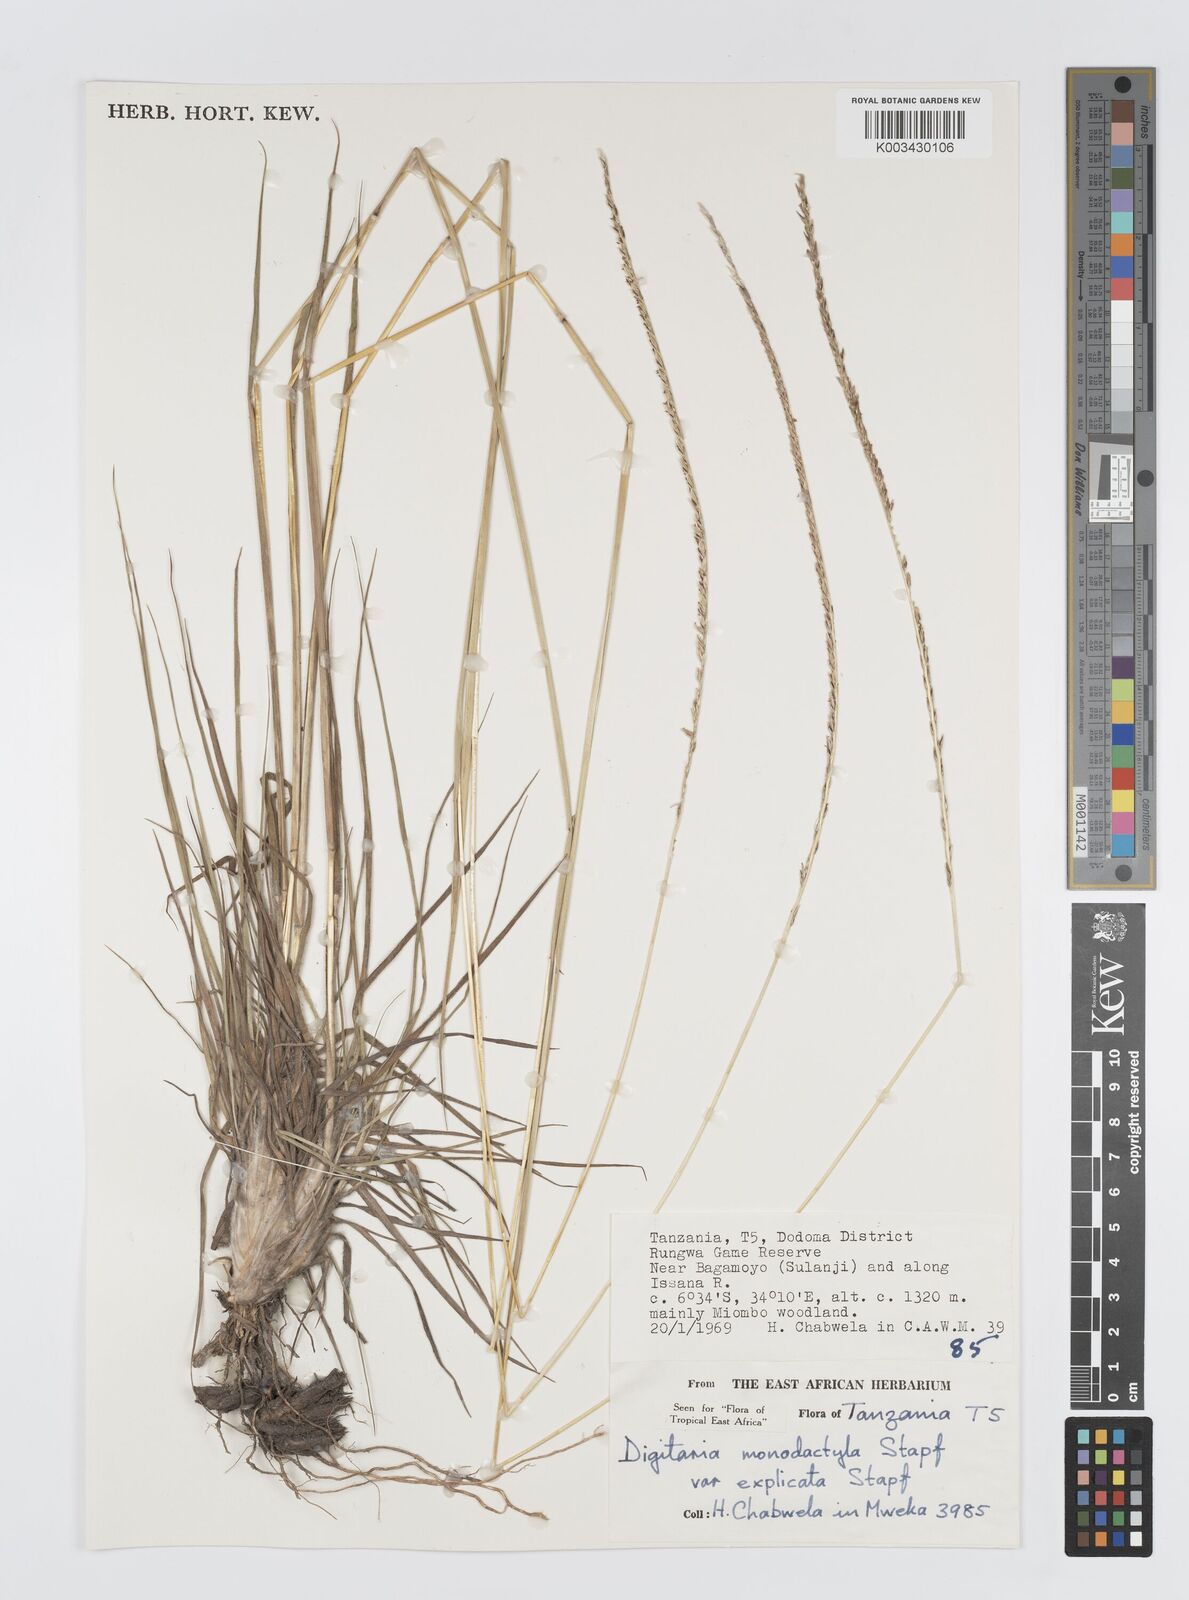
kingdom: Plantae
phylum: Tracheophyta
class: Liliopsida
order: Poales
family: Poaceae
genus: Digitaria
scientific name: Digitaria monodactyla
